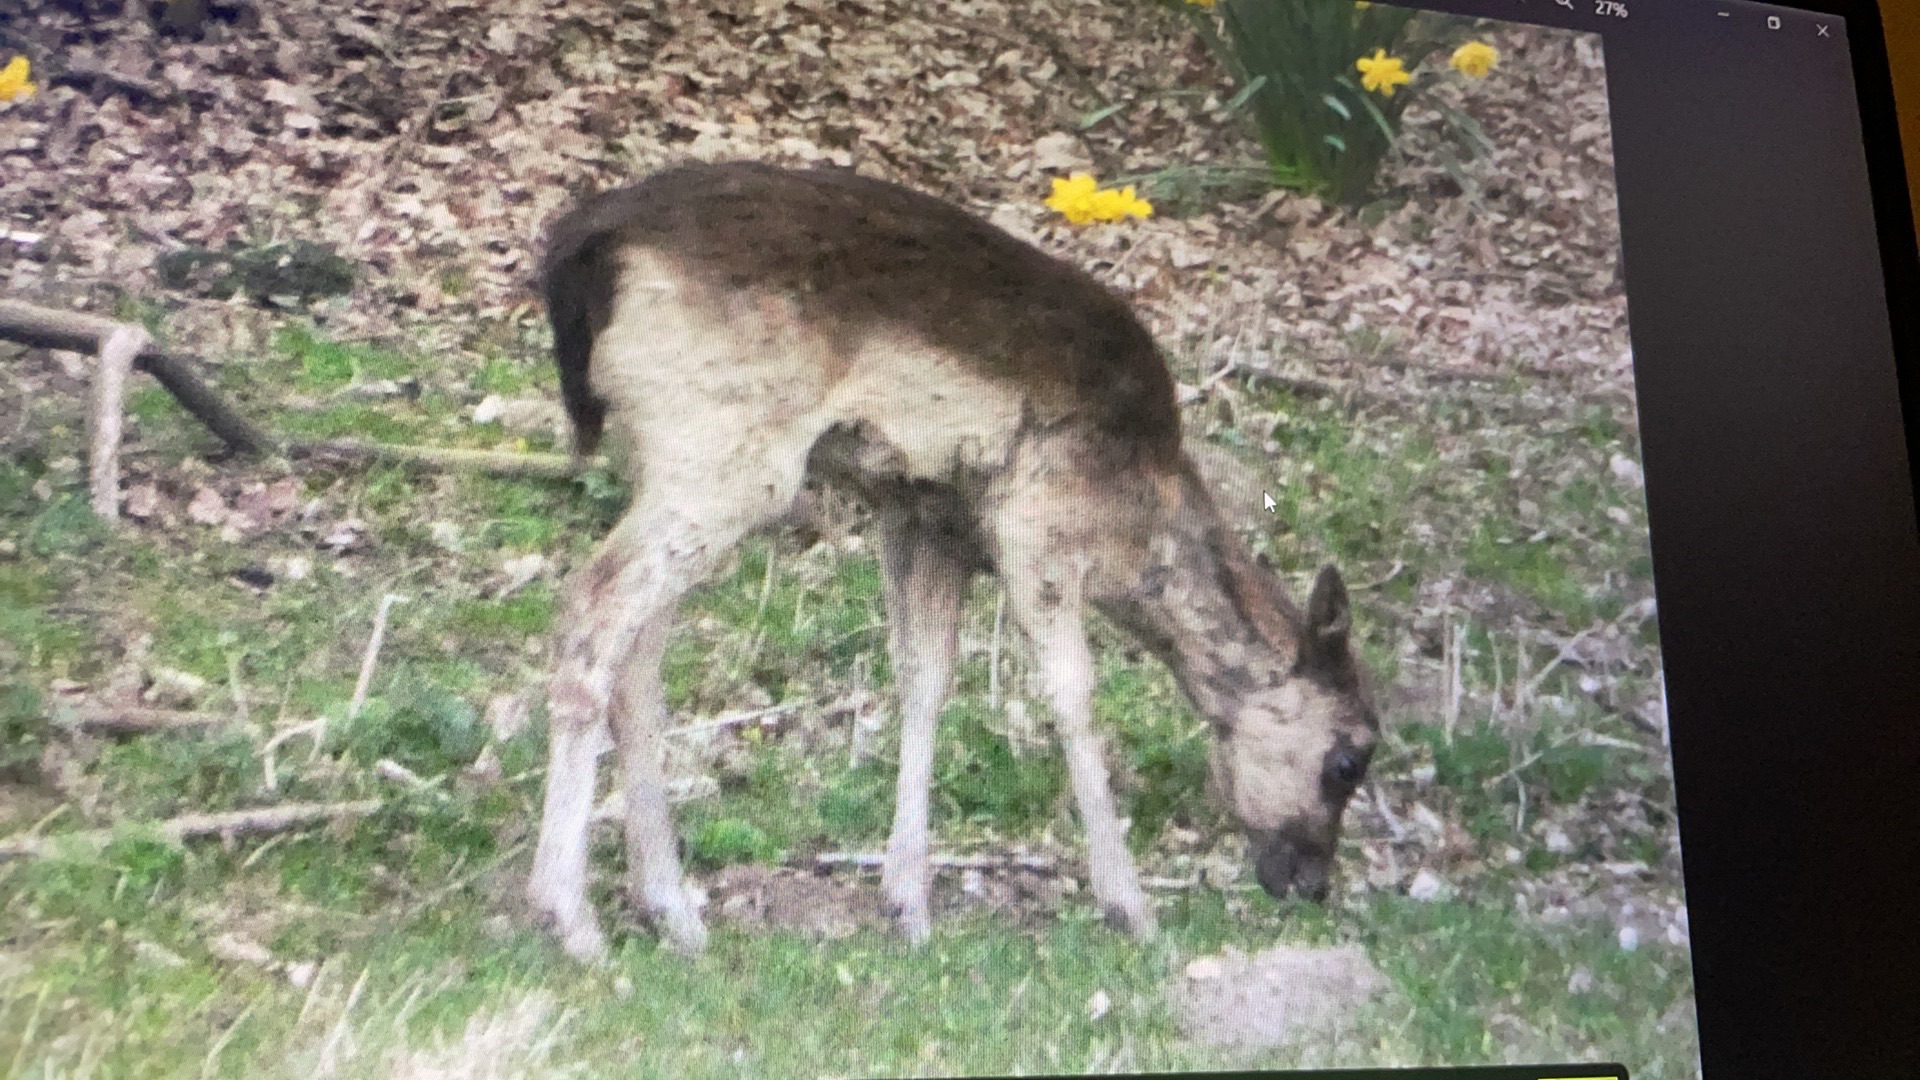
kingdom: Animalia
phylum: Chordata
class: Mammalia
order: Artiodactyla
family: Cervidae
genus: Dama
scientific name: Dama dama
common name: Dådyr
